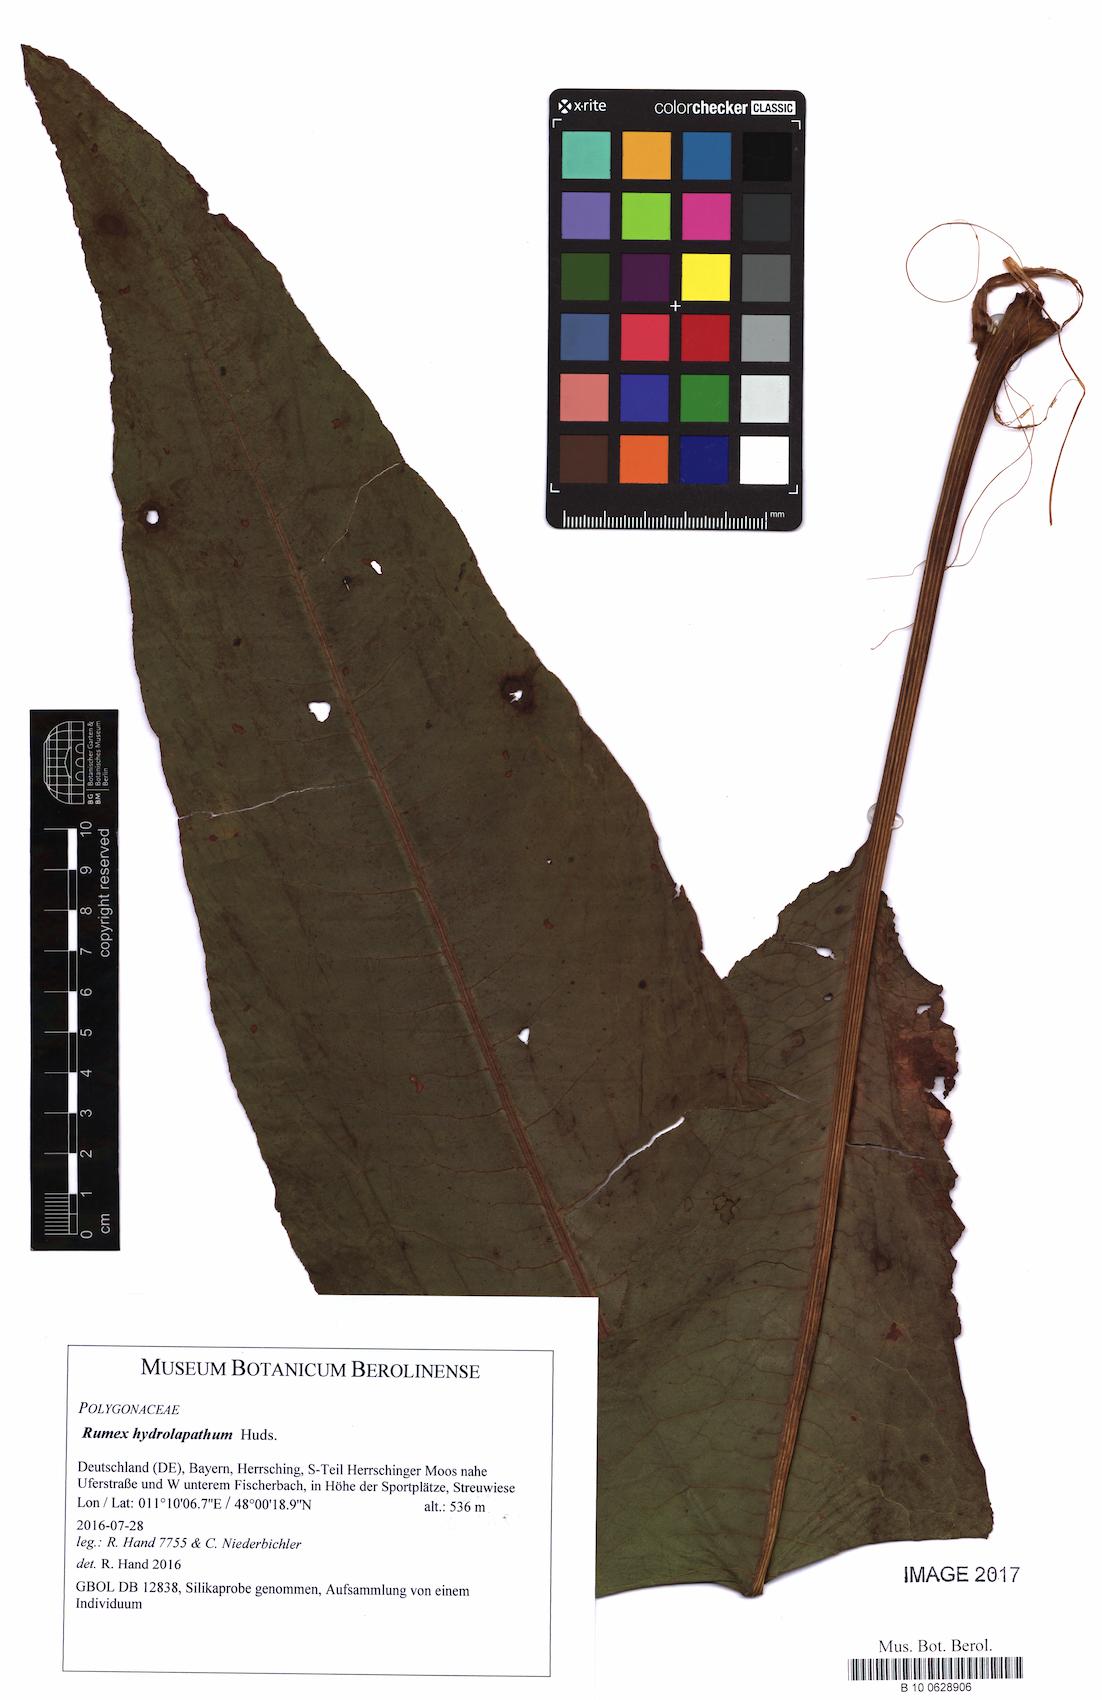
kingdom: Plantae
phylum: Tracheophyta
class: Magnoliopsida
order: Caryophyllales
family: Polygonaceae
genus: Rumex
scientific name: Rumex hydrolapathum
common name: Water dock
